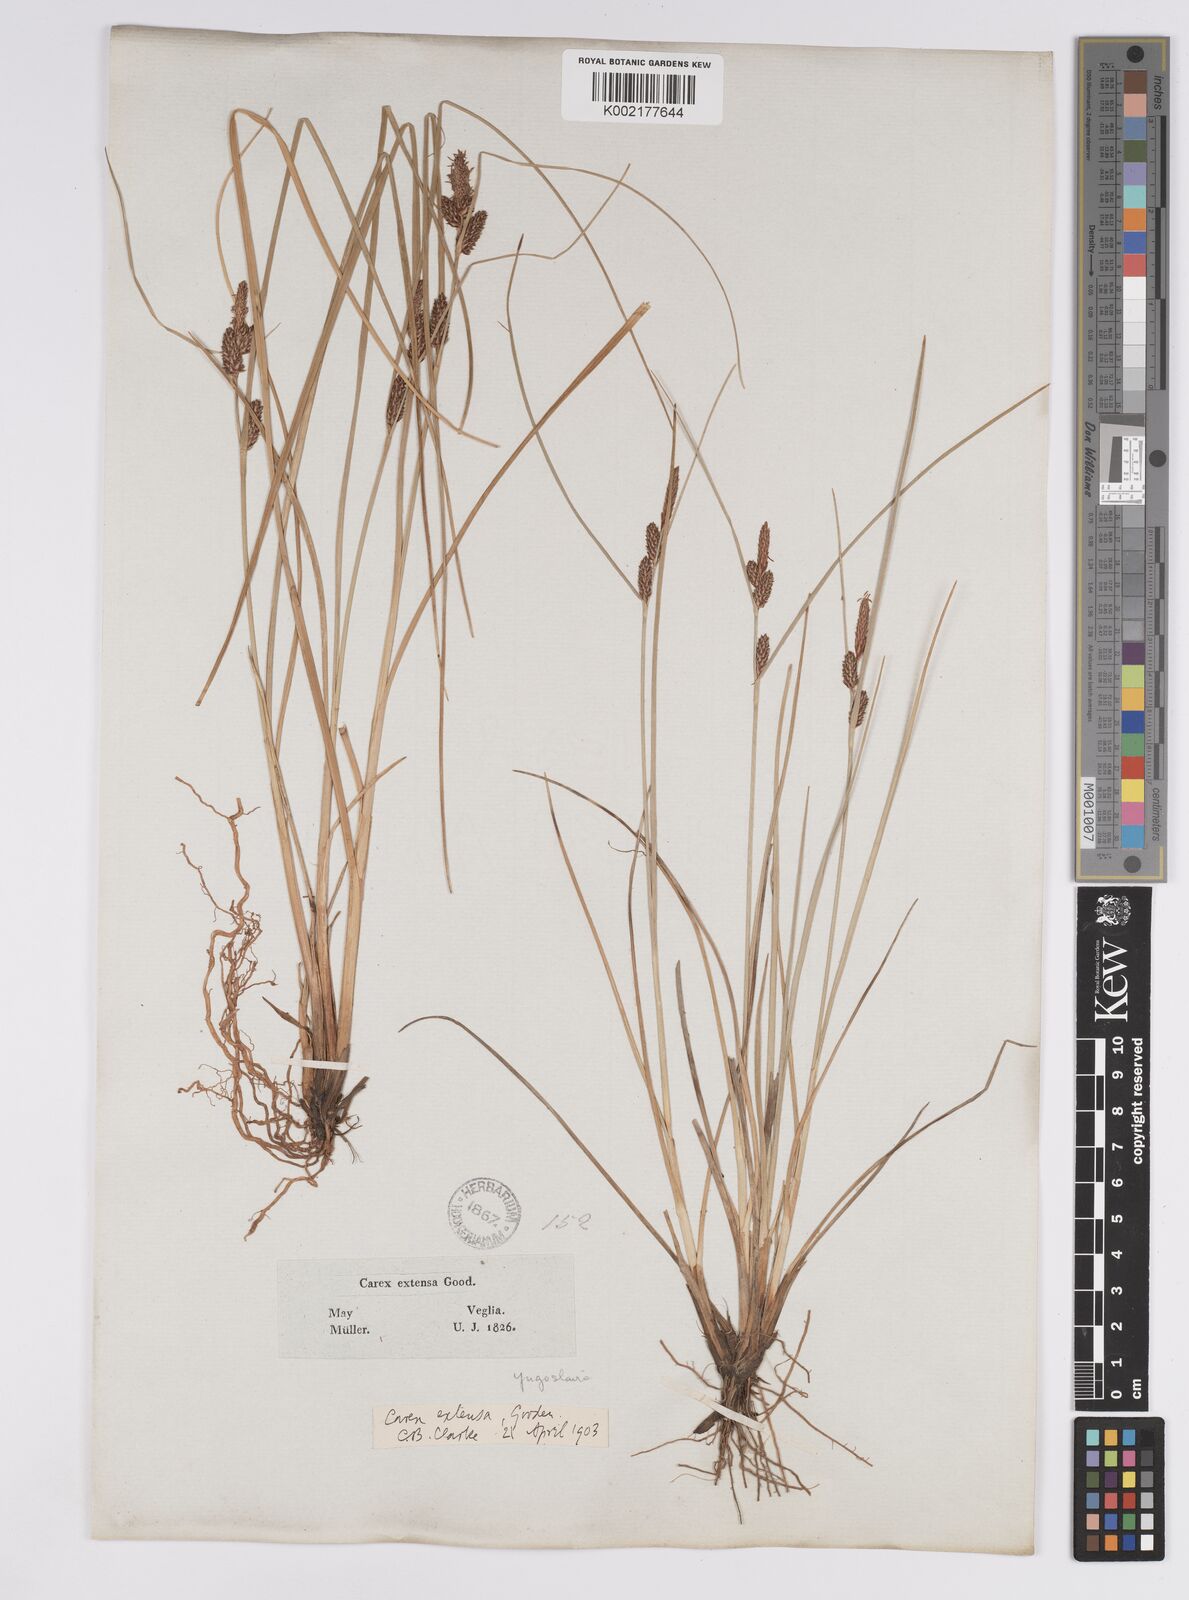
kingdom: Plantae
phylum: Tracheophyta
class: Liliopsida
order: Poales
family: Cyperaceae
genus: Carex
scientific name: Carex extensa
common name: Long-bracted sedge
